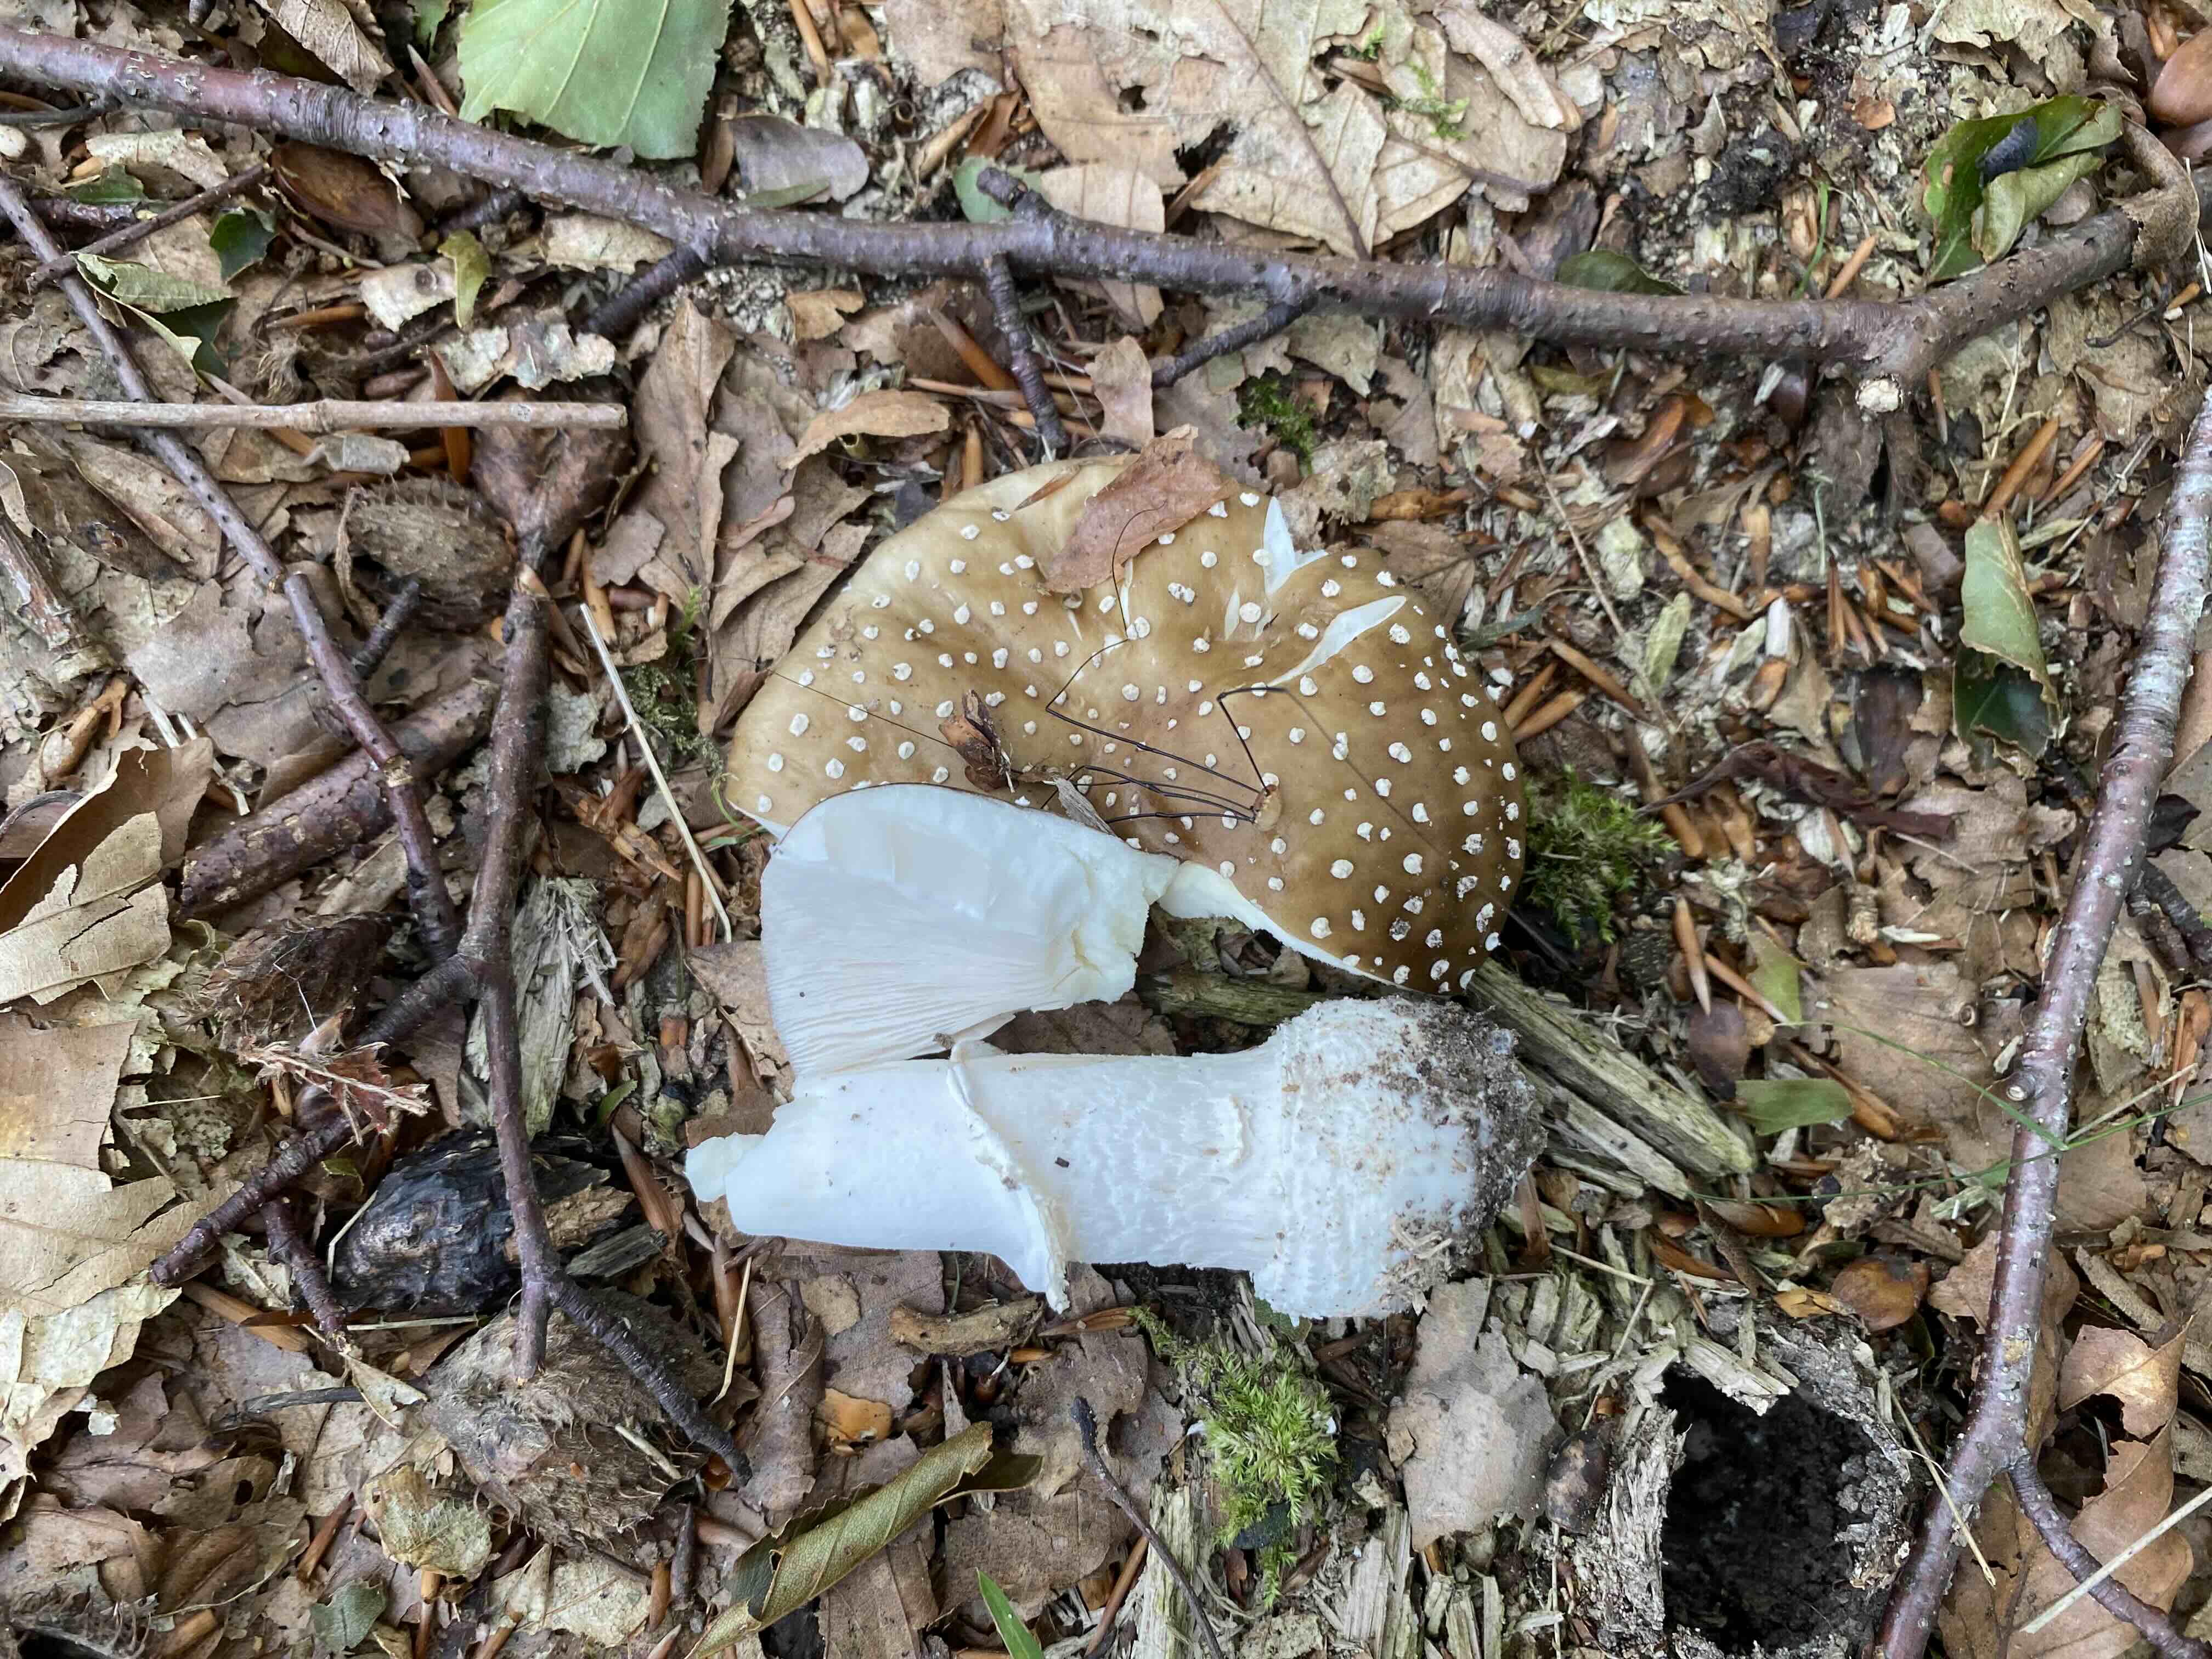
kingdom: Fungi
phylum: Basidiomycota
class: Agaricomycetes
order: Agaricales
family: Amanitaceae
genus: Amanita
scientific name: Amanita pantherina
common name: panter-fluesvamp
